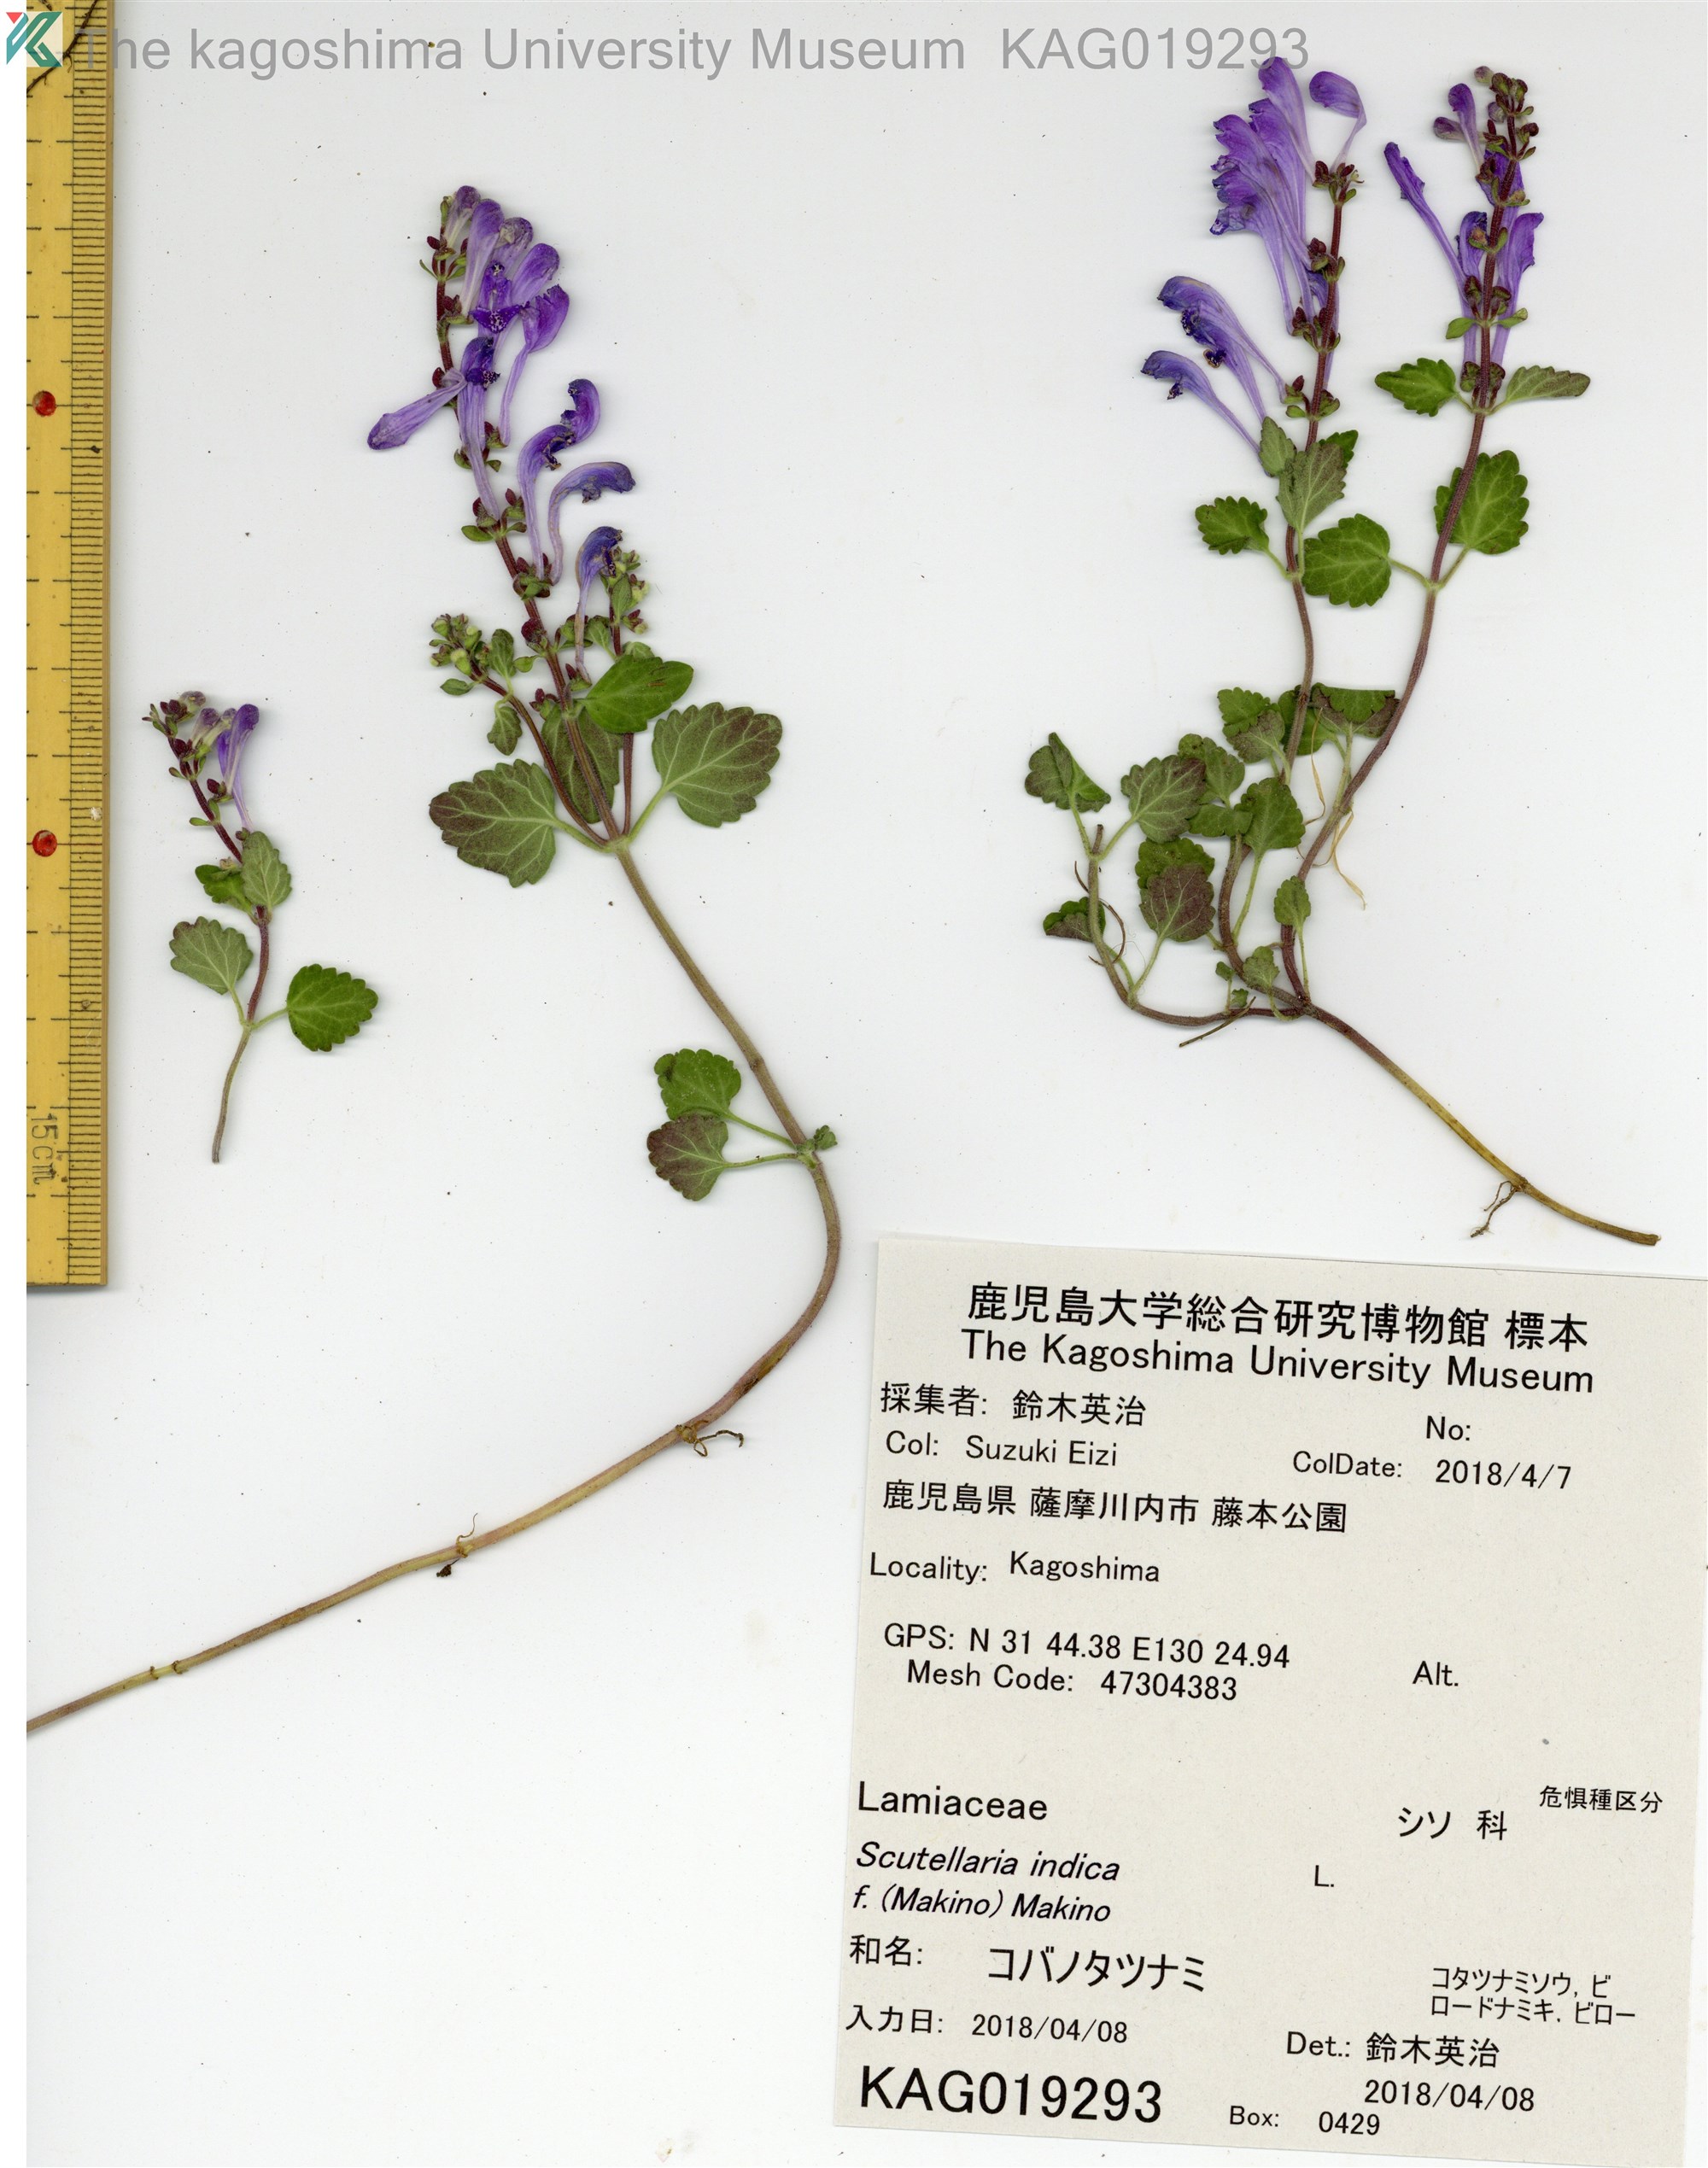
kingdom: Plantae
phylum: Tracheophyta
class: Magnoliopsida
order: Lamiales
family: Lamiaceae
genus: Scutellaria
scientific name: Scutellaria indica
